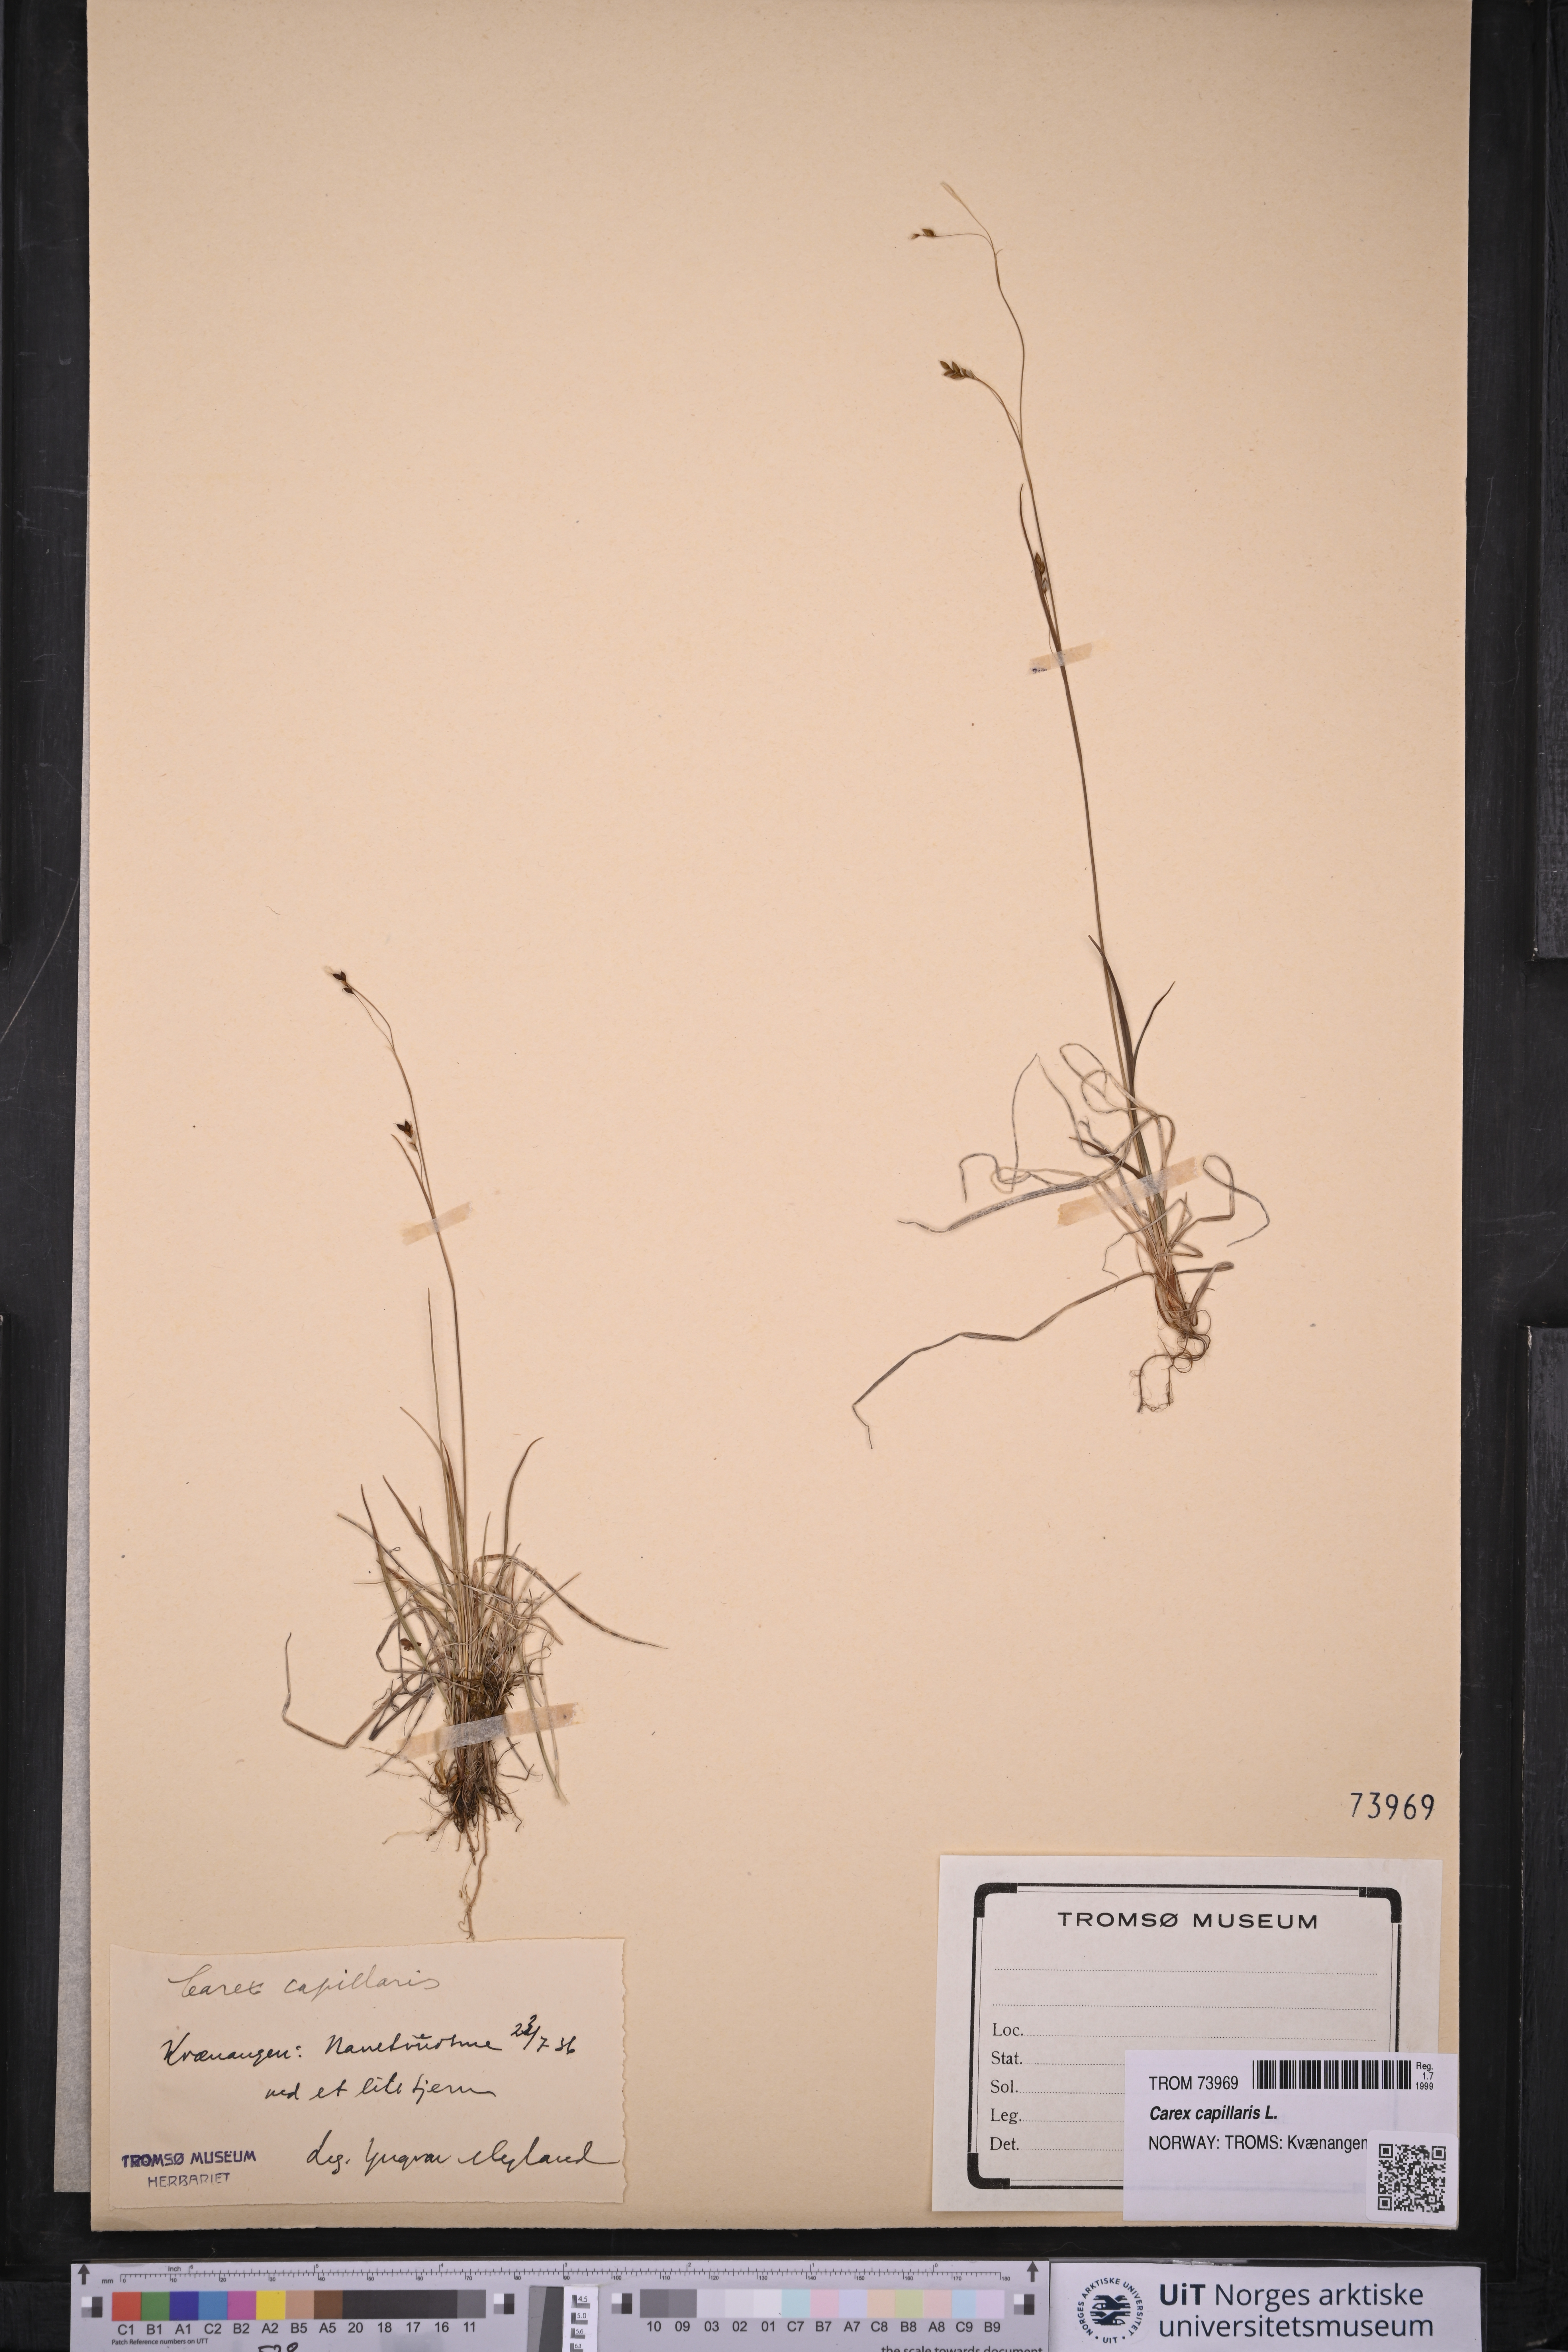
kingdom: Plantae
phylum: Tracheophyta
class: Liliopsida
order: Poales
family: Cyperaceae
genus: Carex
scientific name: Carex capillaris
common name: Hair sedge
